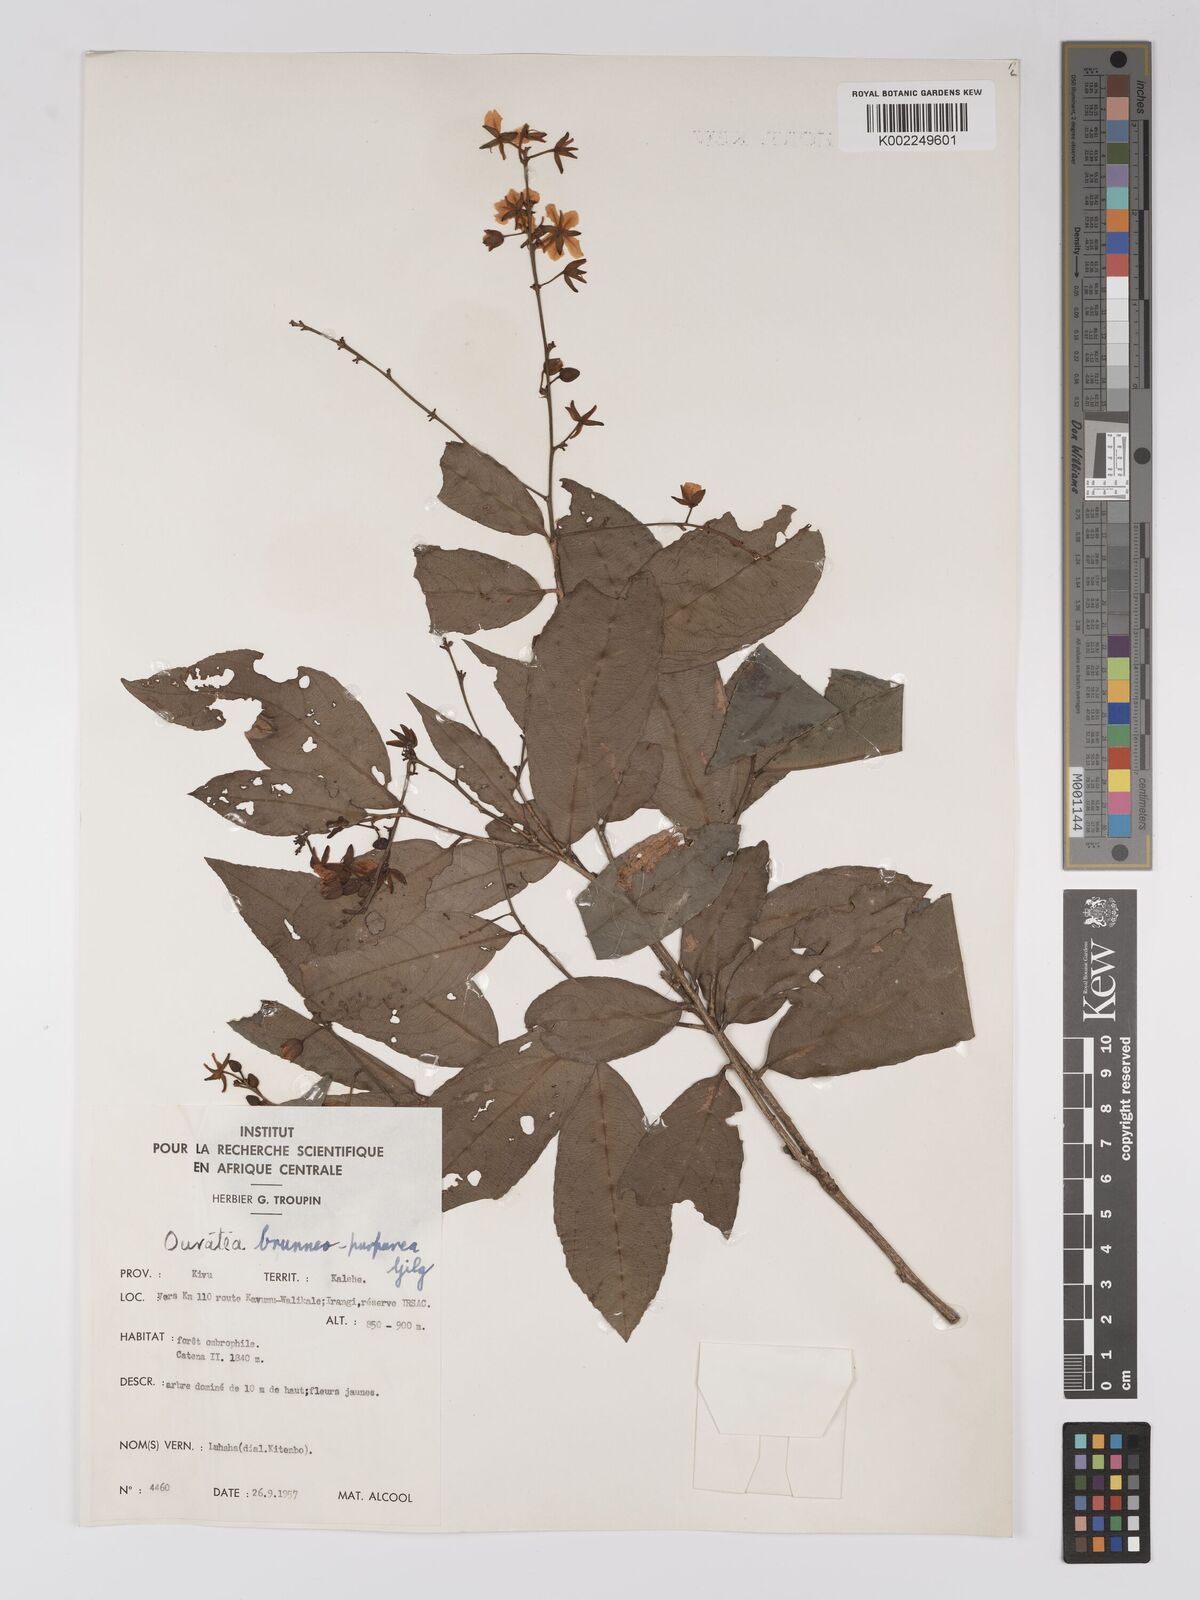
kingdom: Plantae
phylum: Tracheophyta
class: Magnoliopsida
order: Malpighiales
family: Ochnaceae
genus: Campylospermum
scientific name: Campylospermum reticulatum
